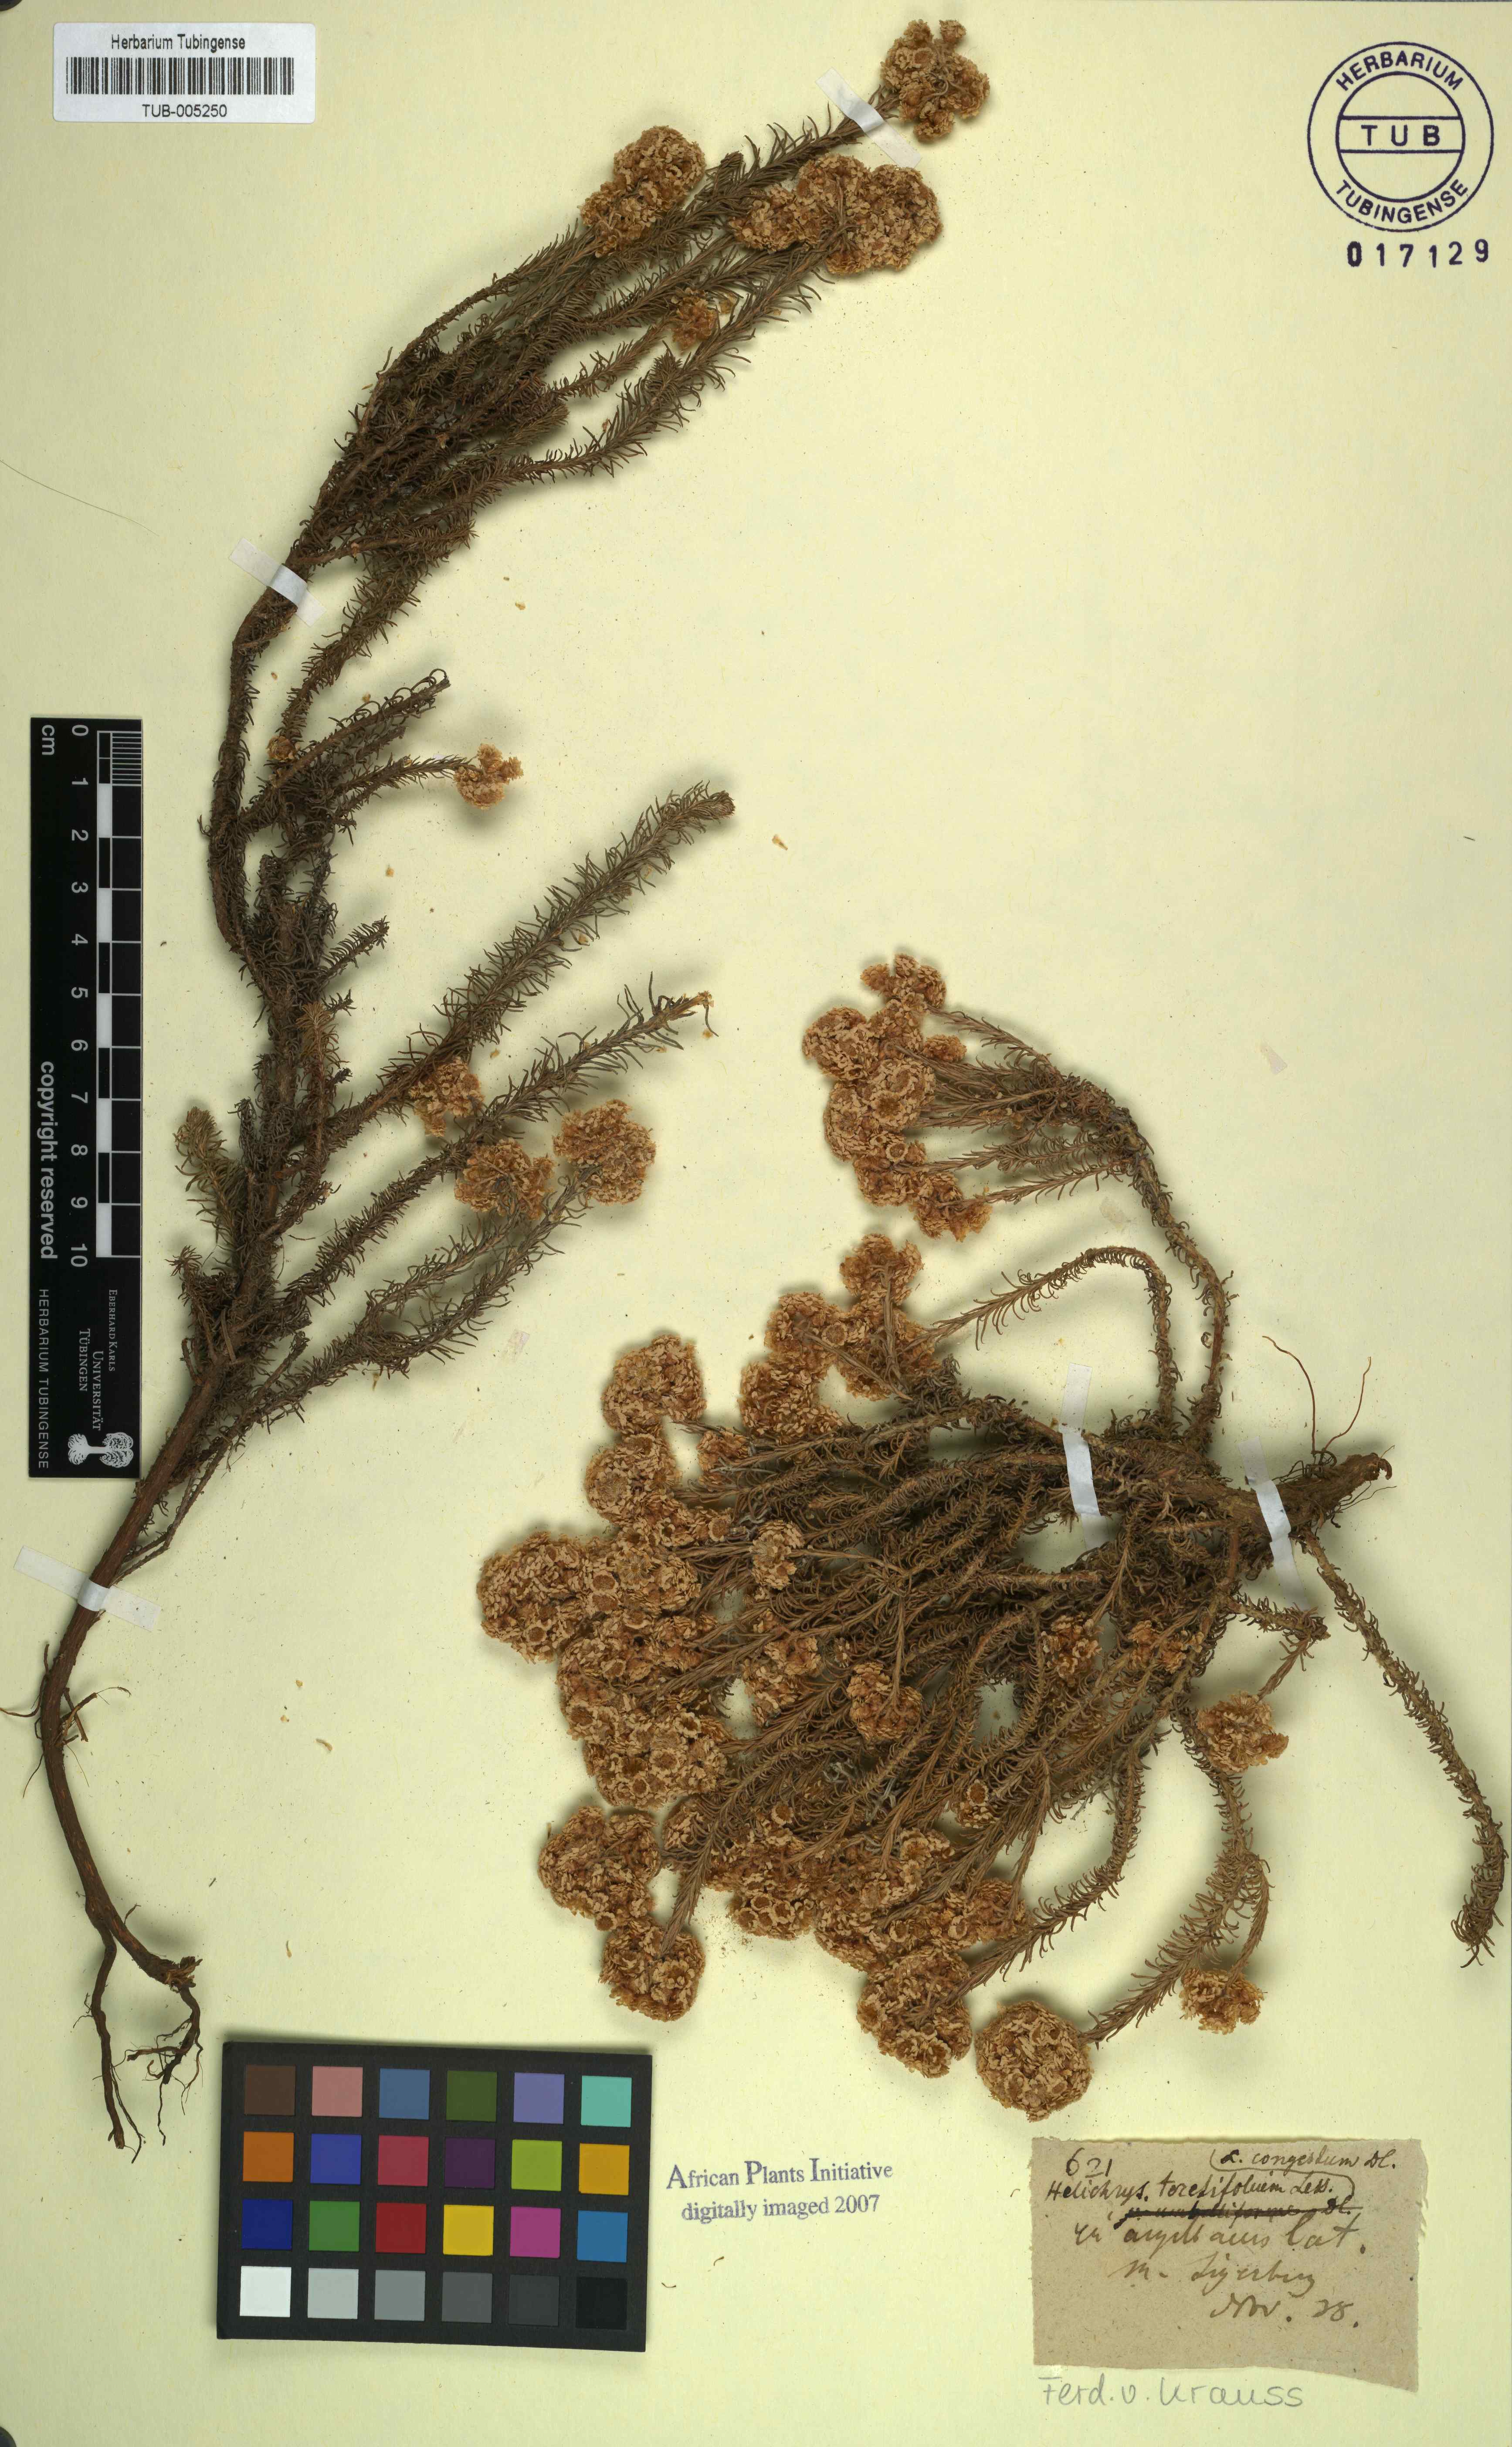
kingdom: Plantae
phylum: Tracheophyta
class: Magnoliopsida
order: Asterales
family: Asteraceae
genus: Helichrysum
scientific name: Helichrysum
